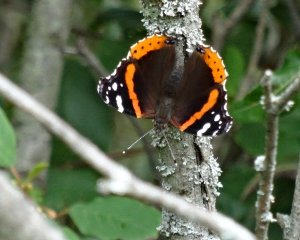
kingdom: Animalia
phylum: Arthropoda
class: Insecta
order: Lepidoptera
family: Nymphalidae
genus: Vanessa
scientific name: Vanessa atalanta
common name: Red Admiral
